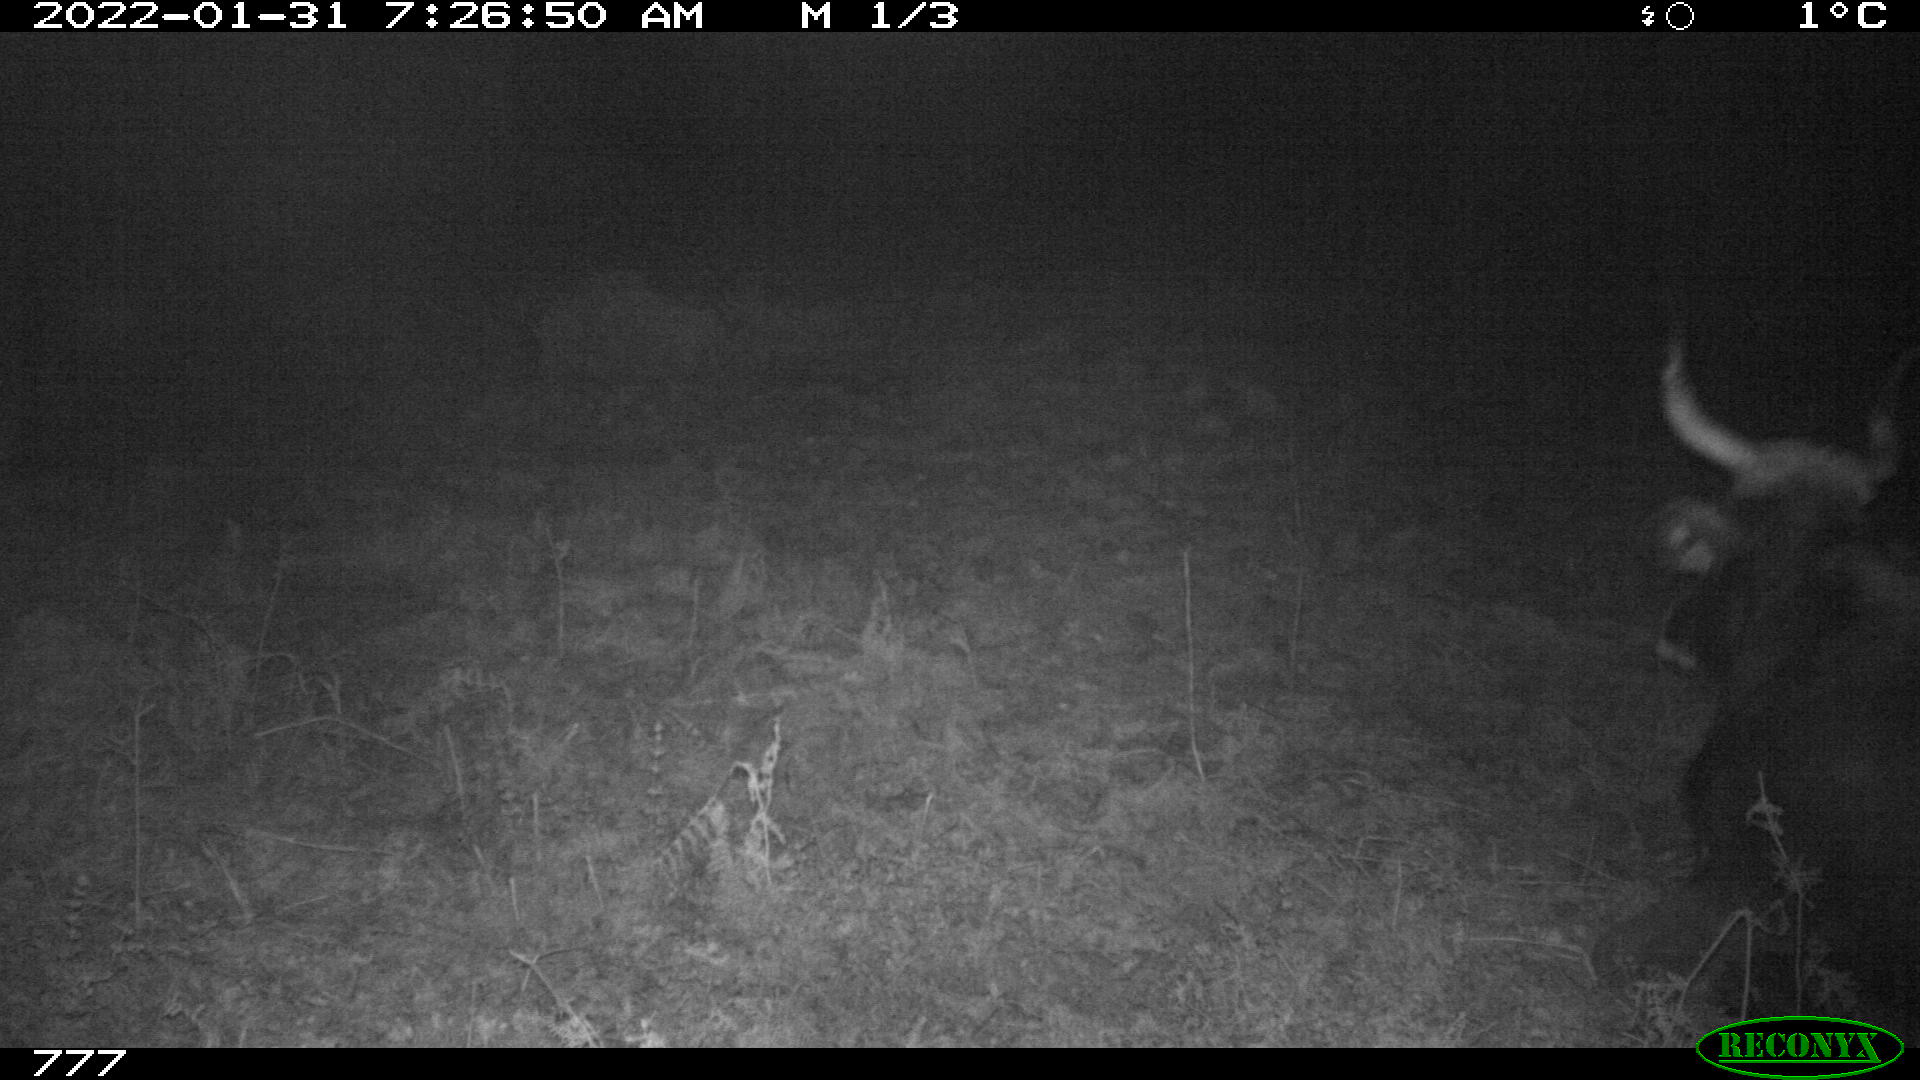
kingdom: Animalia
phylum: Chordata
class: Mammalia
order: Artiodactyla
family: Bovidae
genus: Bos
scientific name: Bos taurus
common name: Domesticated cattle
